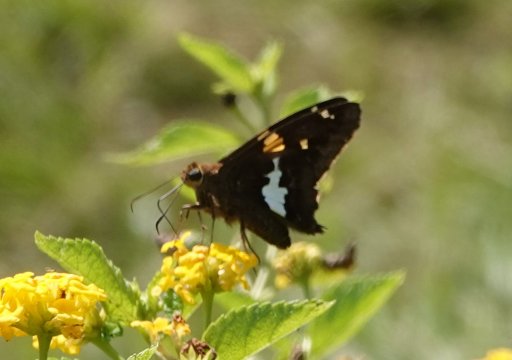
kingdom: Animalia
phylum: Arthropoda
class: Insecta
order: Lepidoptera
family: Hesperiidae
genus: Epargyreus
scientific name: Epargyreus clarus
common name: Silver-spotted Skipper
